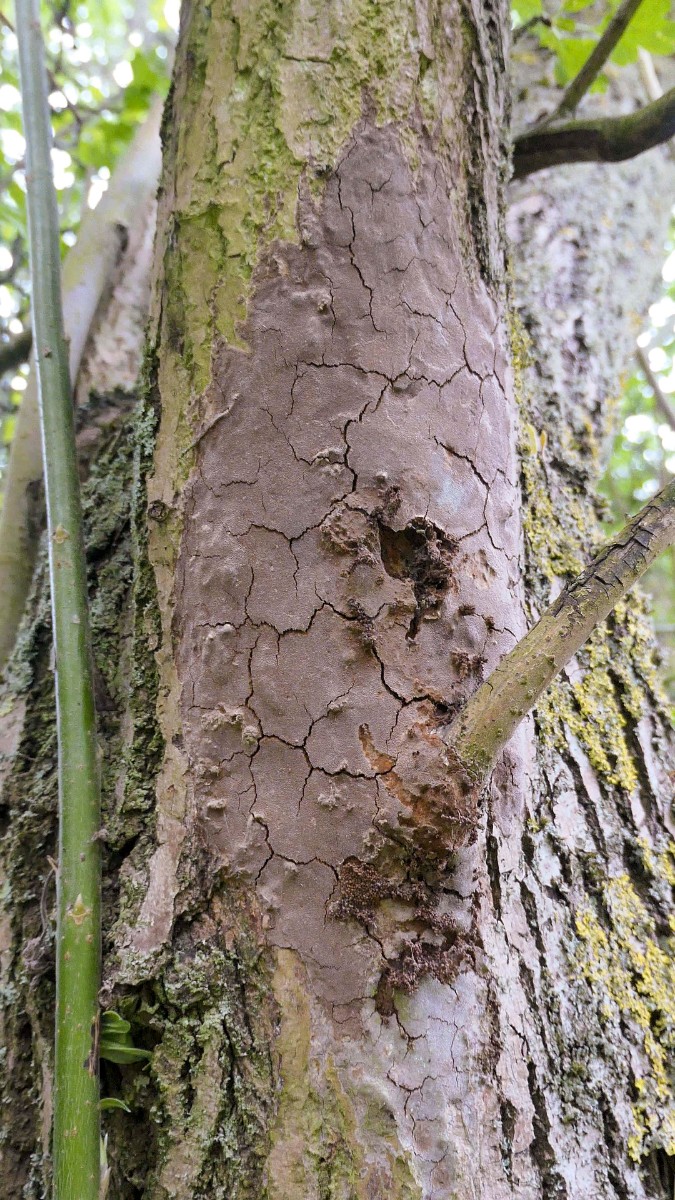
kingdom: Fungi
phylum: Basidiomycota
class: Agaricomycetes
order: Hymenochaetales
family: Hymenochaetaceae
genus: Fomitiporia
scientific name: Fomitiporia punctata
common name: pude-ildporesvamp
